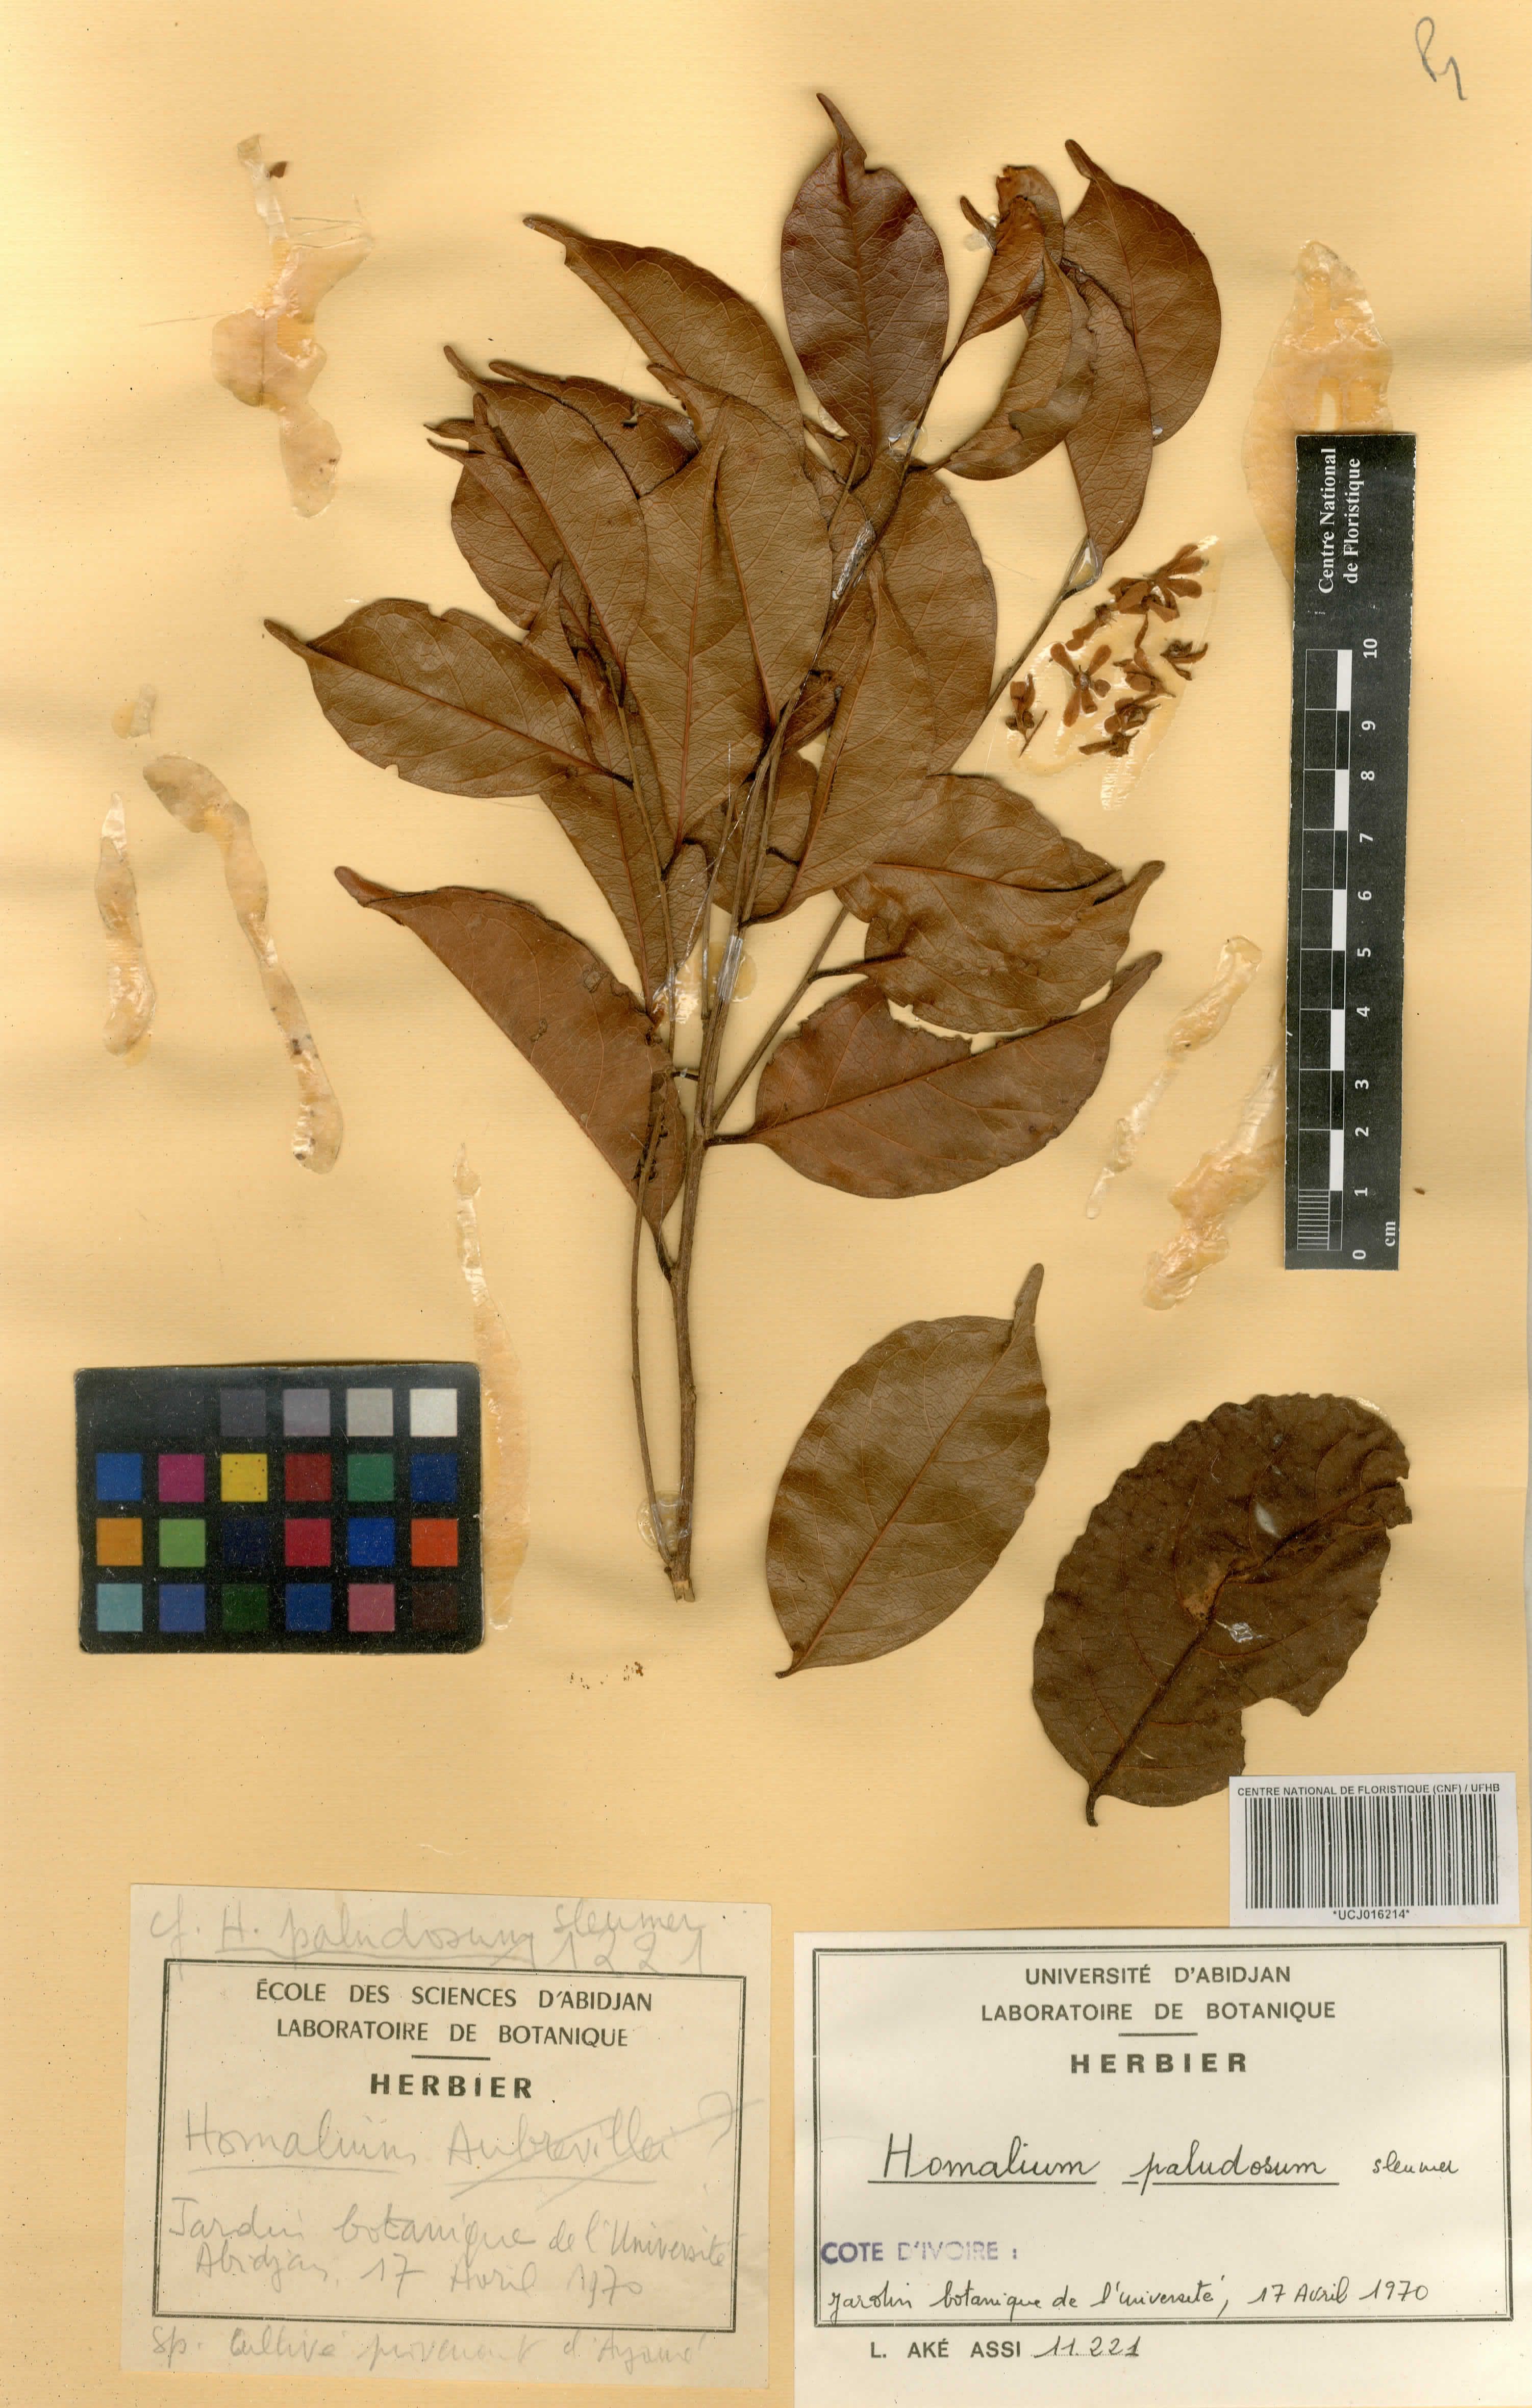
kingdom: Plantae
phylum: Tracheophyta
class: Magnoliopsida
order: Malpighiales
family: Salicaceae
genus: Homalium
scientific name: Homalium
